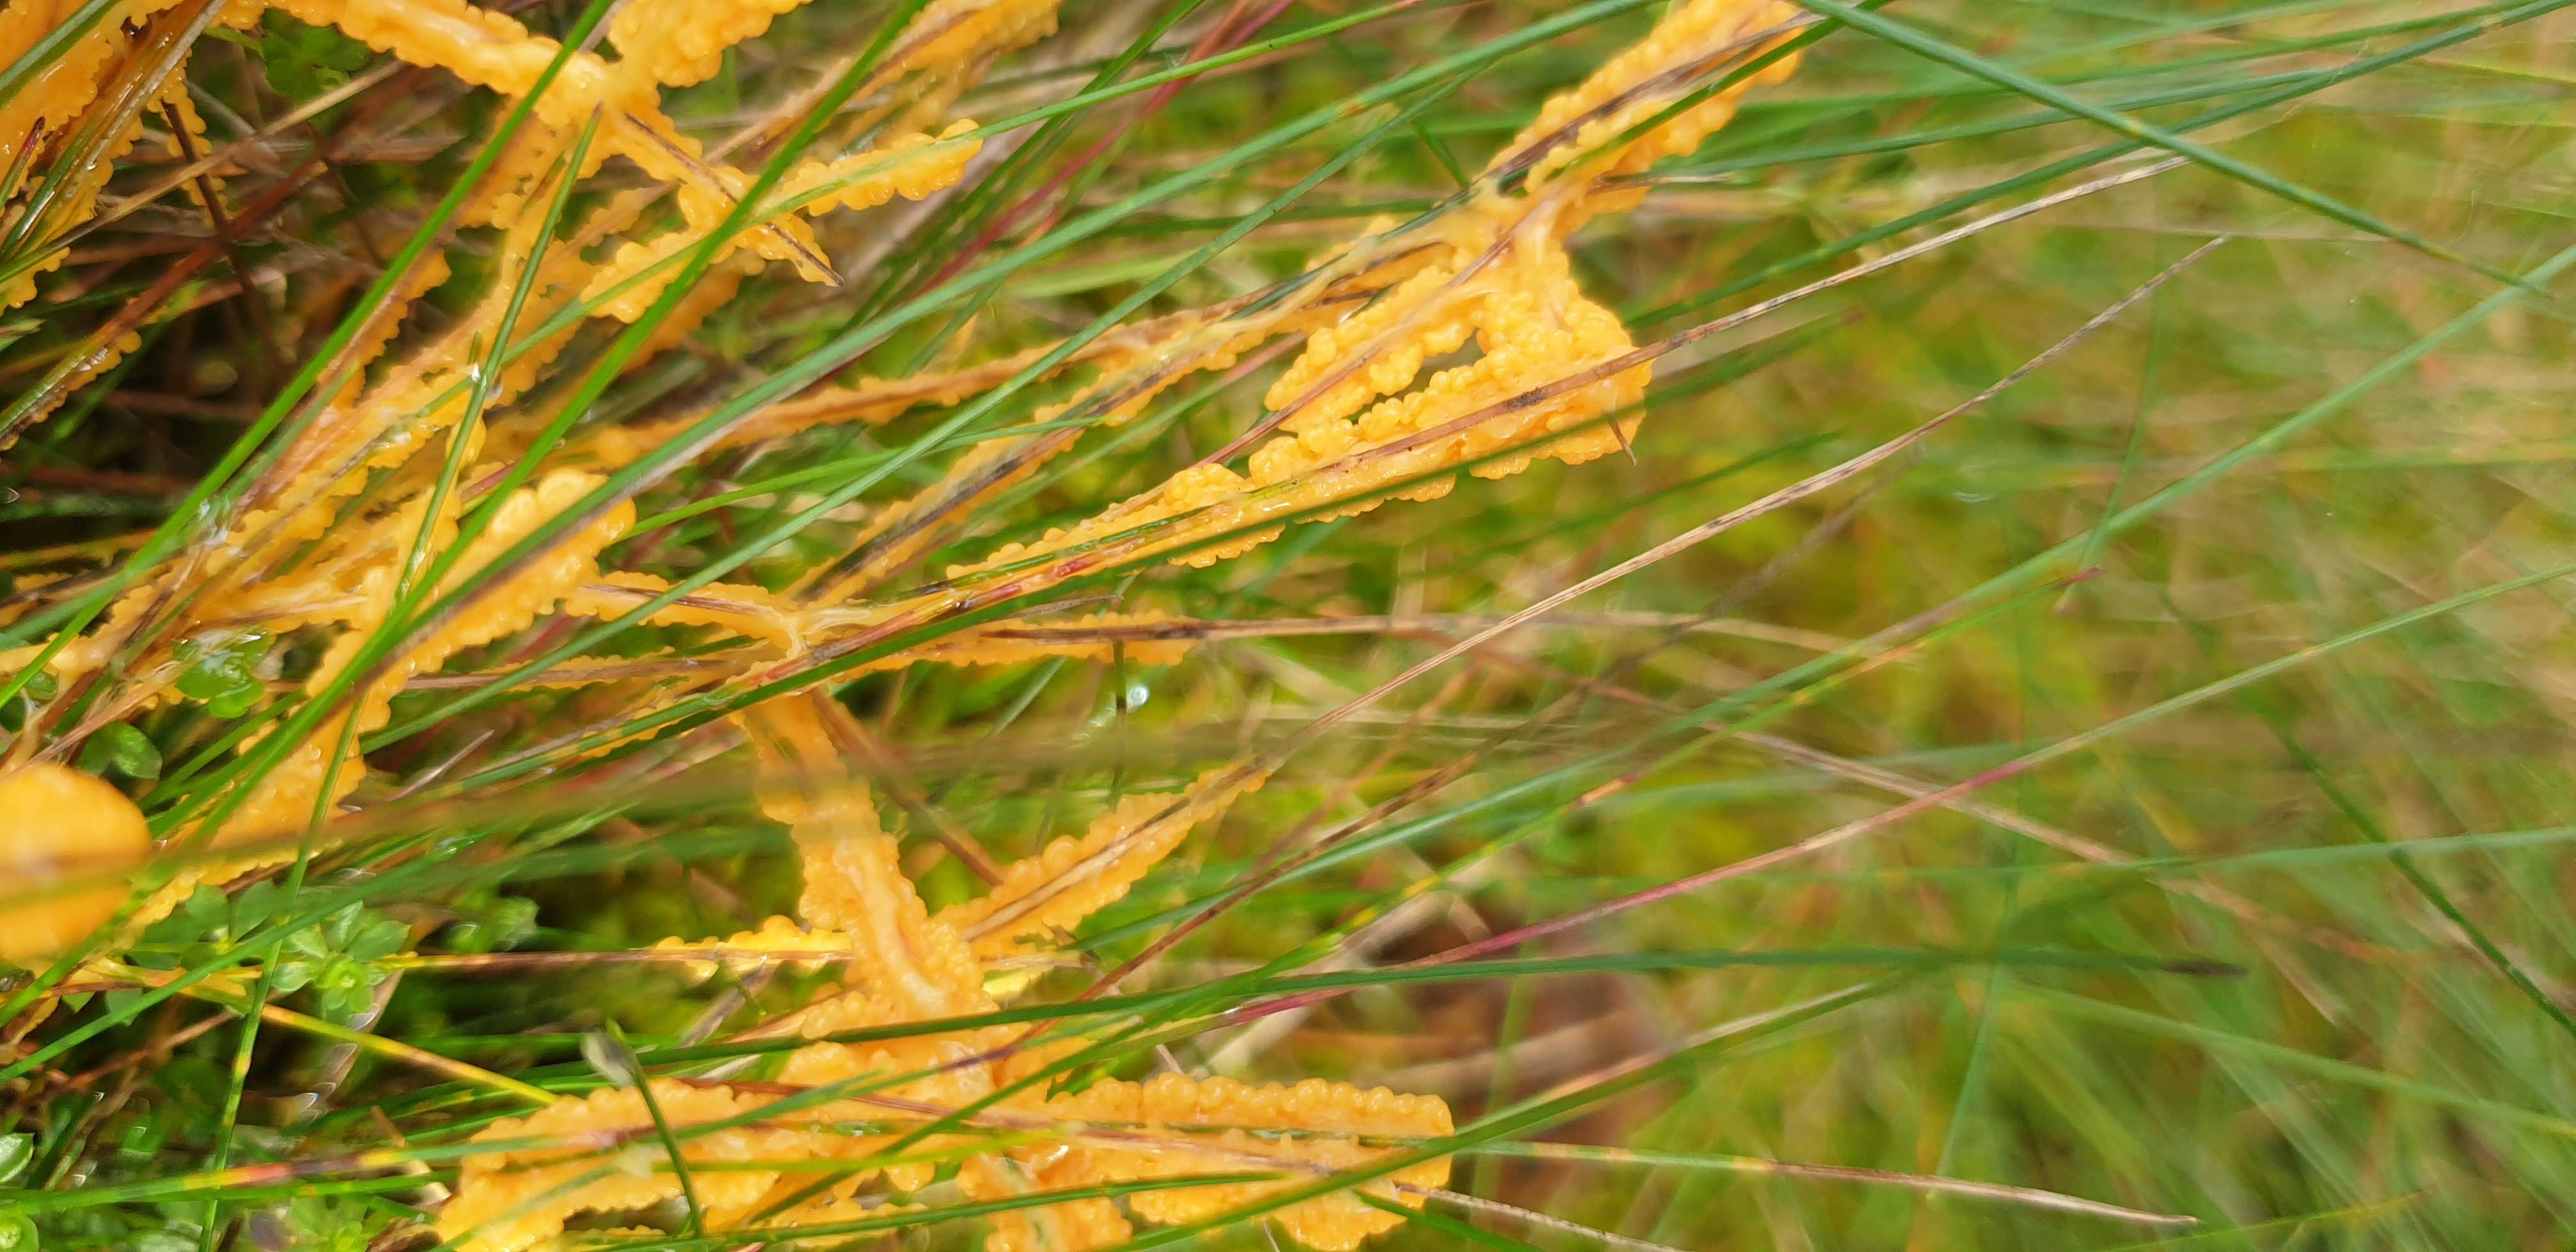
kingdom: Protozoa
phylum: Mycetozoa
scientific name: Mycetozoa
